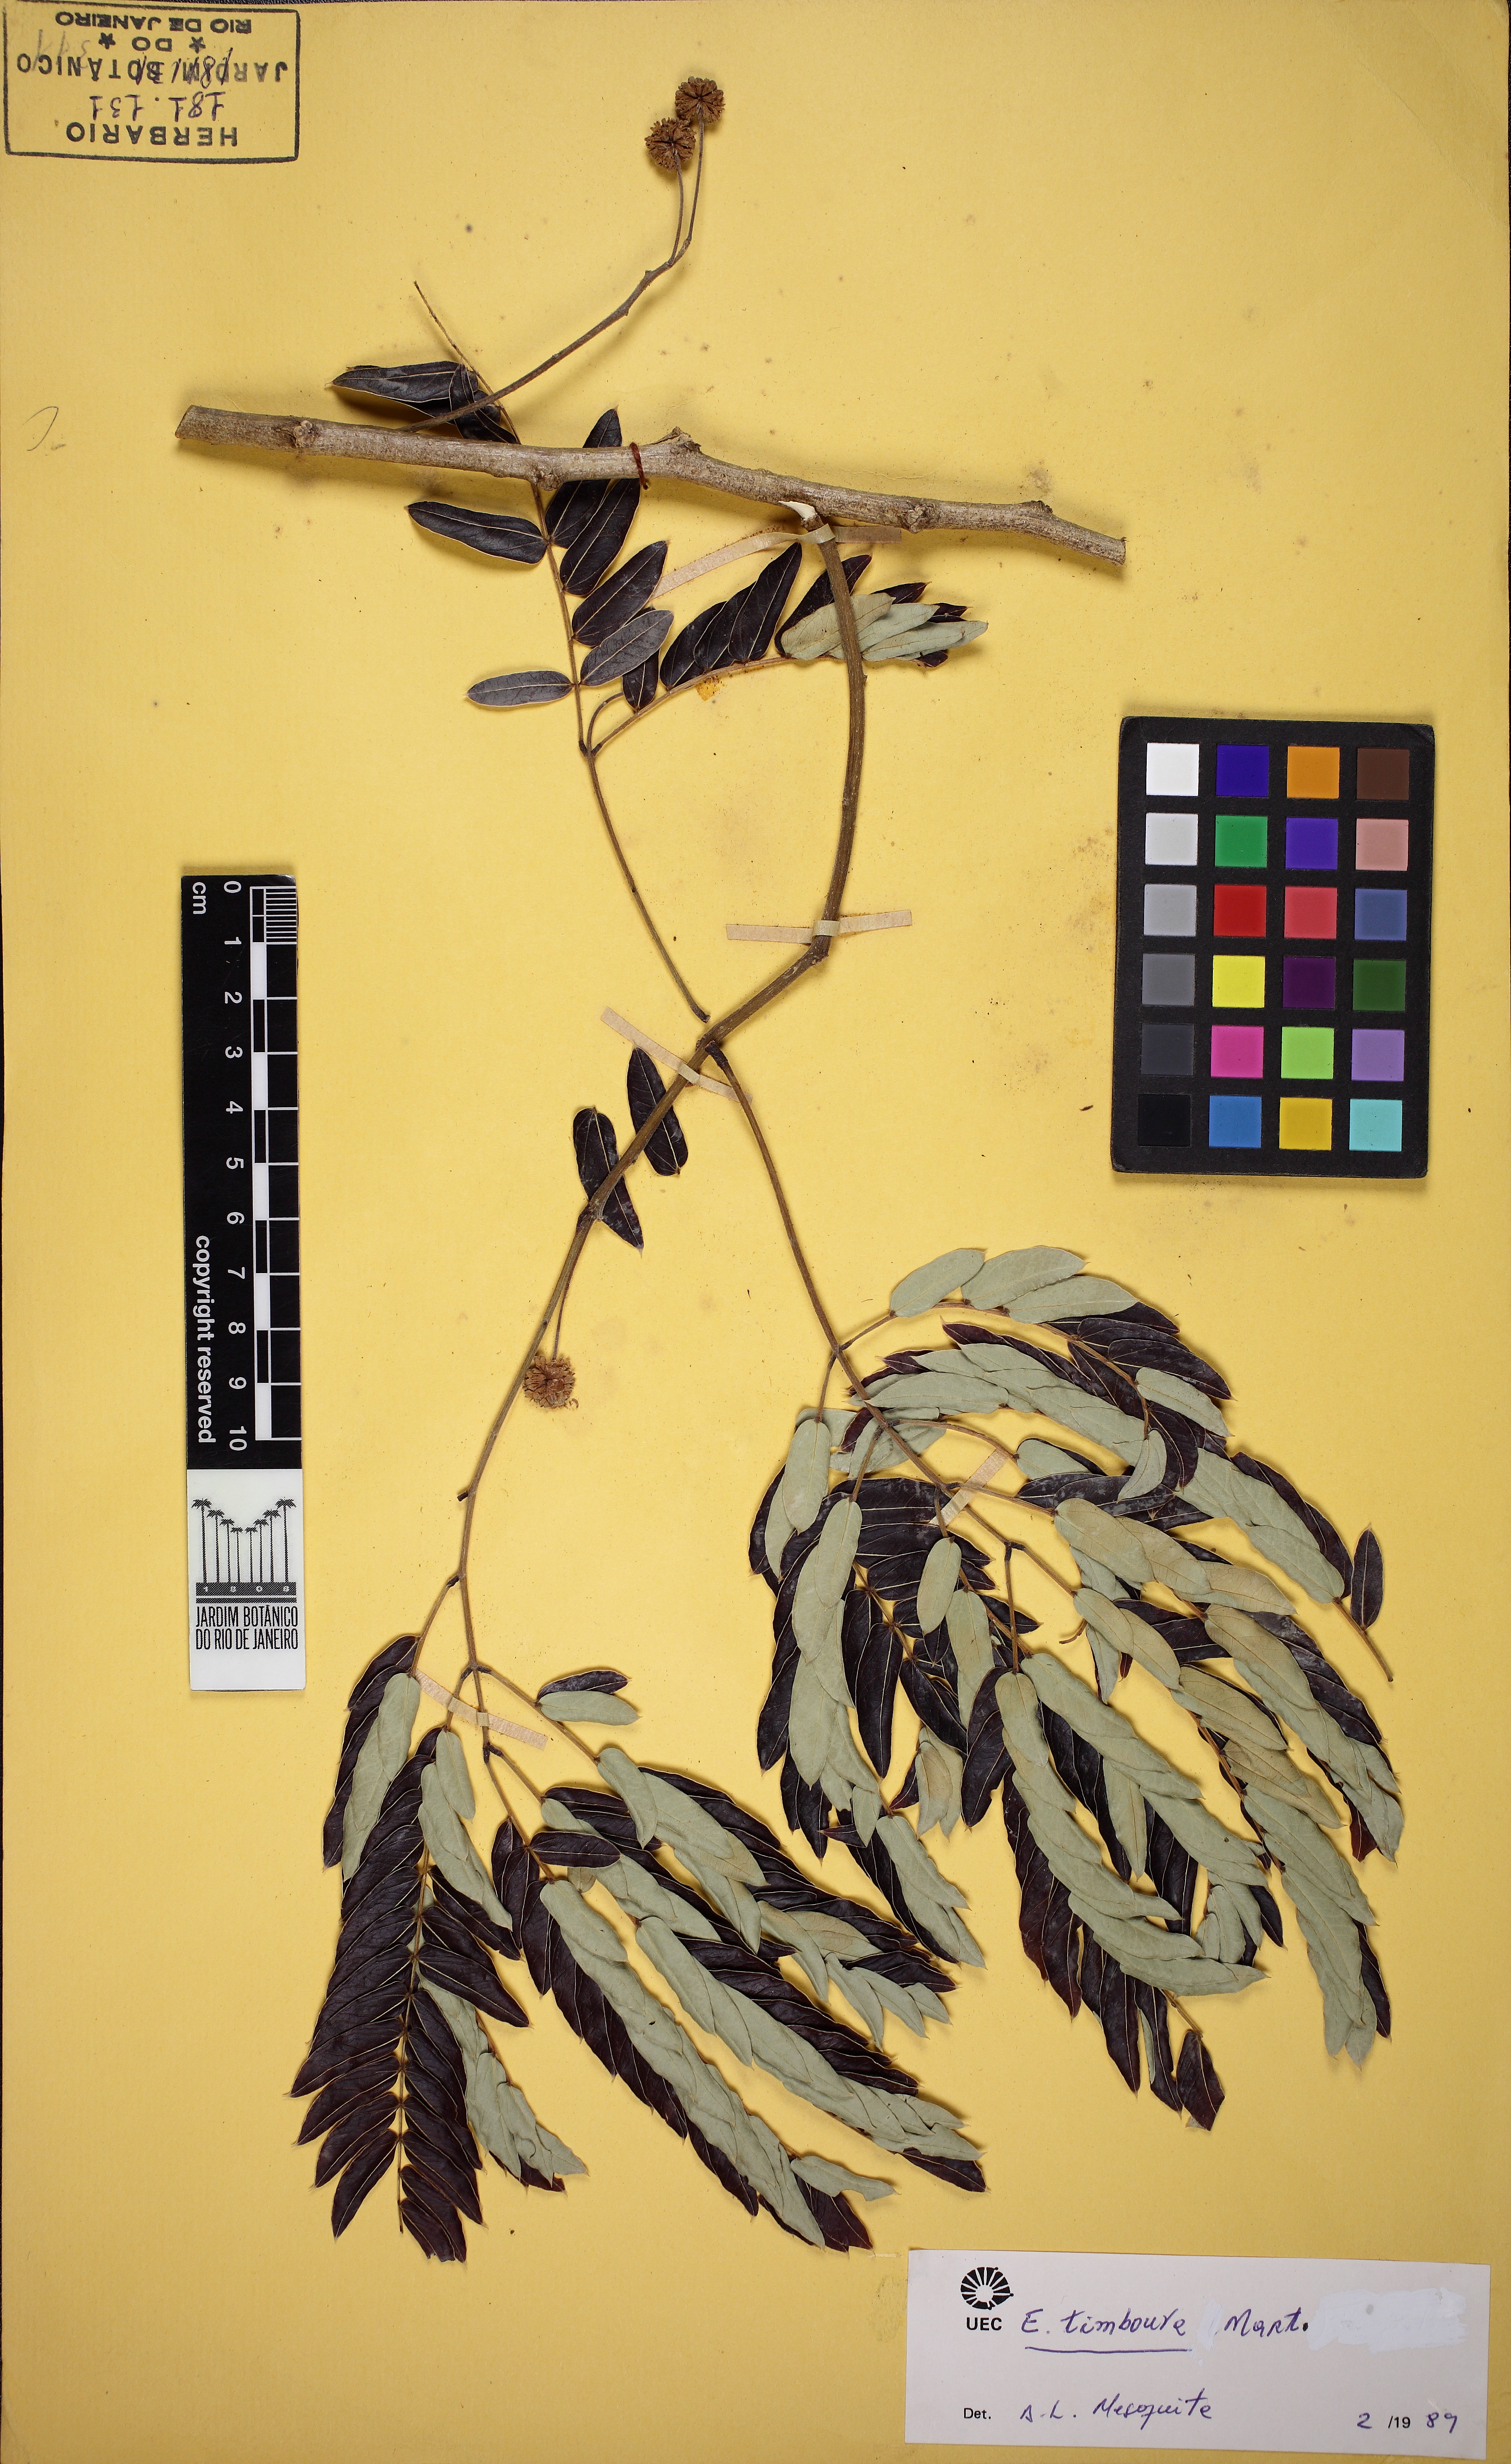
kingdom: Plantae
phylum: Tracheophyta
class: Magnoliopsida
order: Fabales
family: Fabaceae
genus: Enterolobium
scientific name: Enterolobium timbouva
